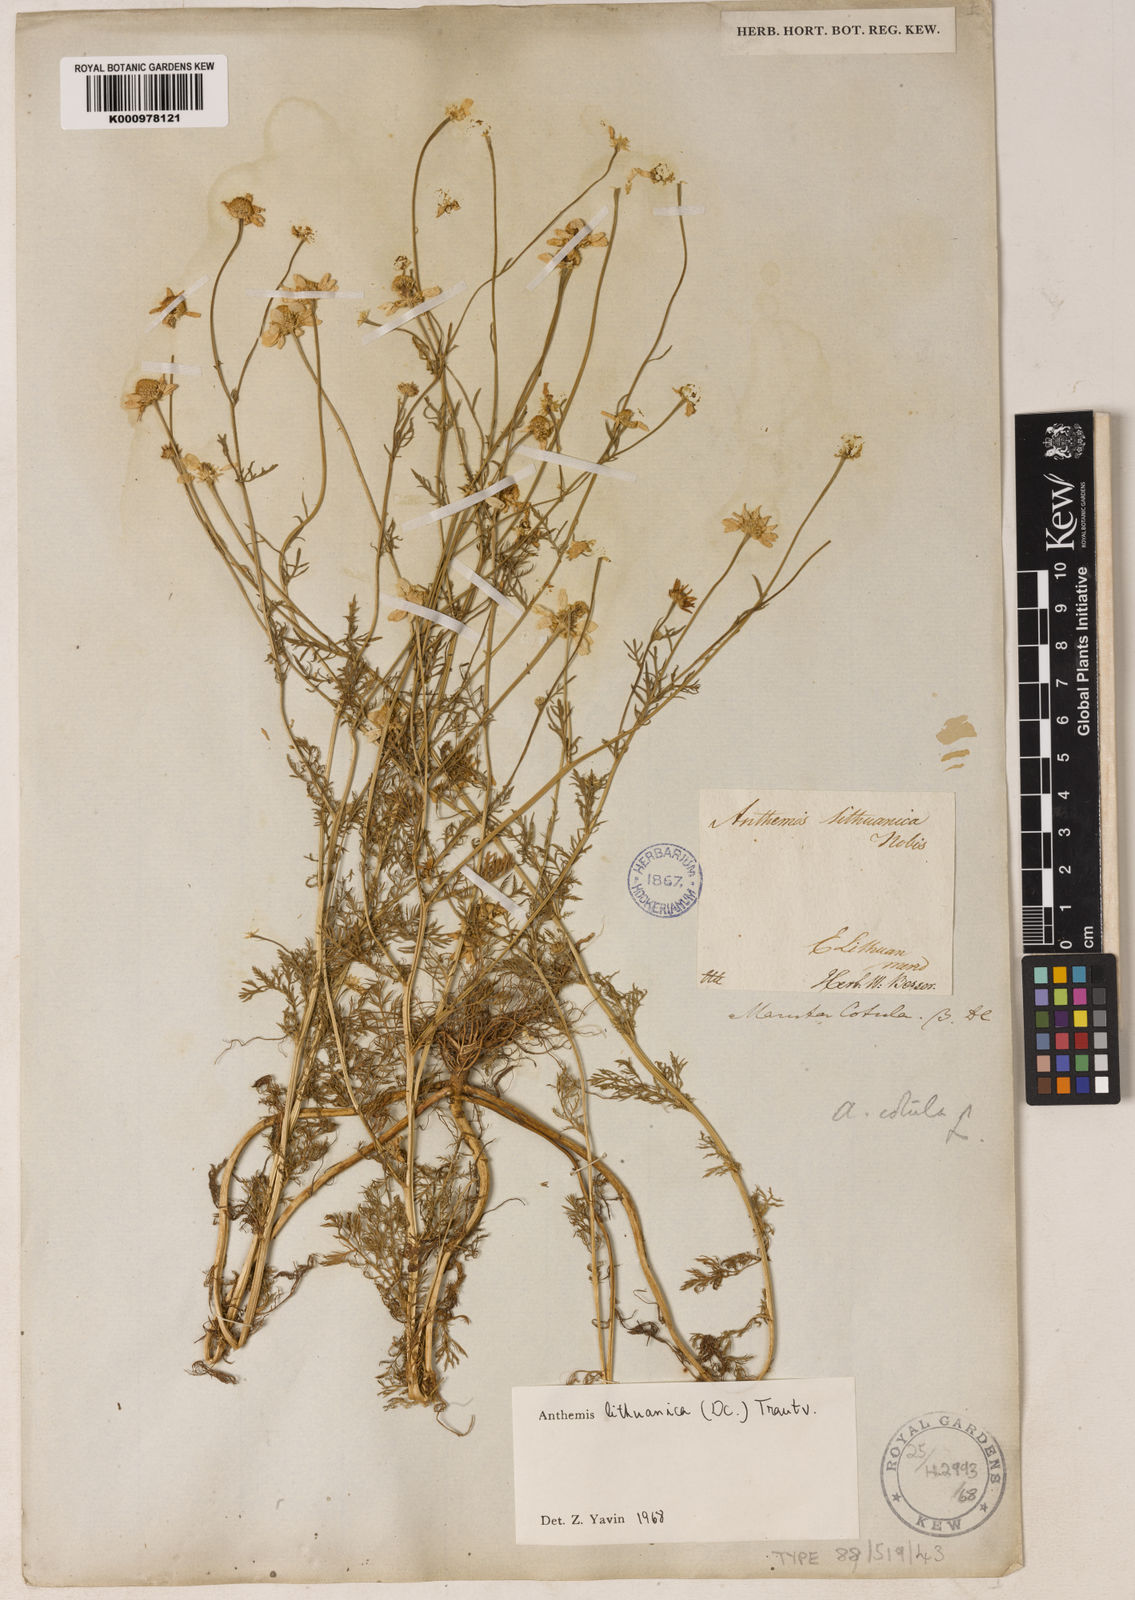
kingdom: Plantae
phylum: Tracheophyta
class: Magnoliopsida
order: Asterales
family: Asteraceae
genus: Anthemis
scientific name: Anthemis
